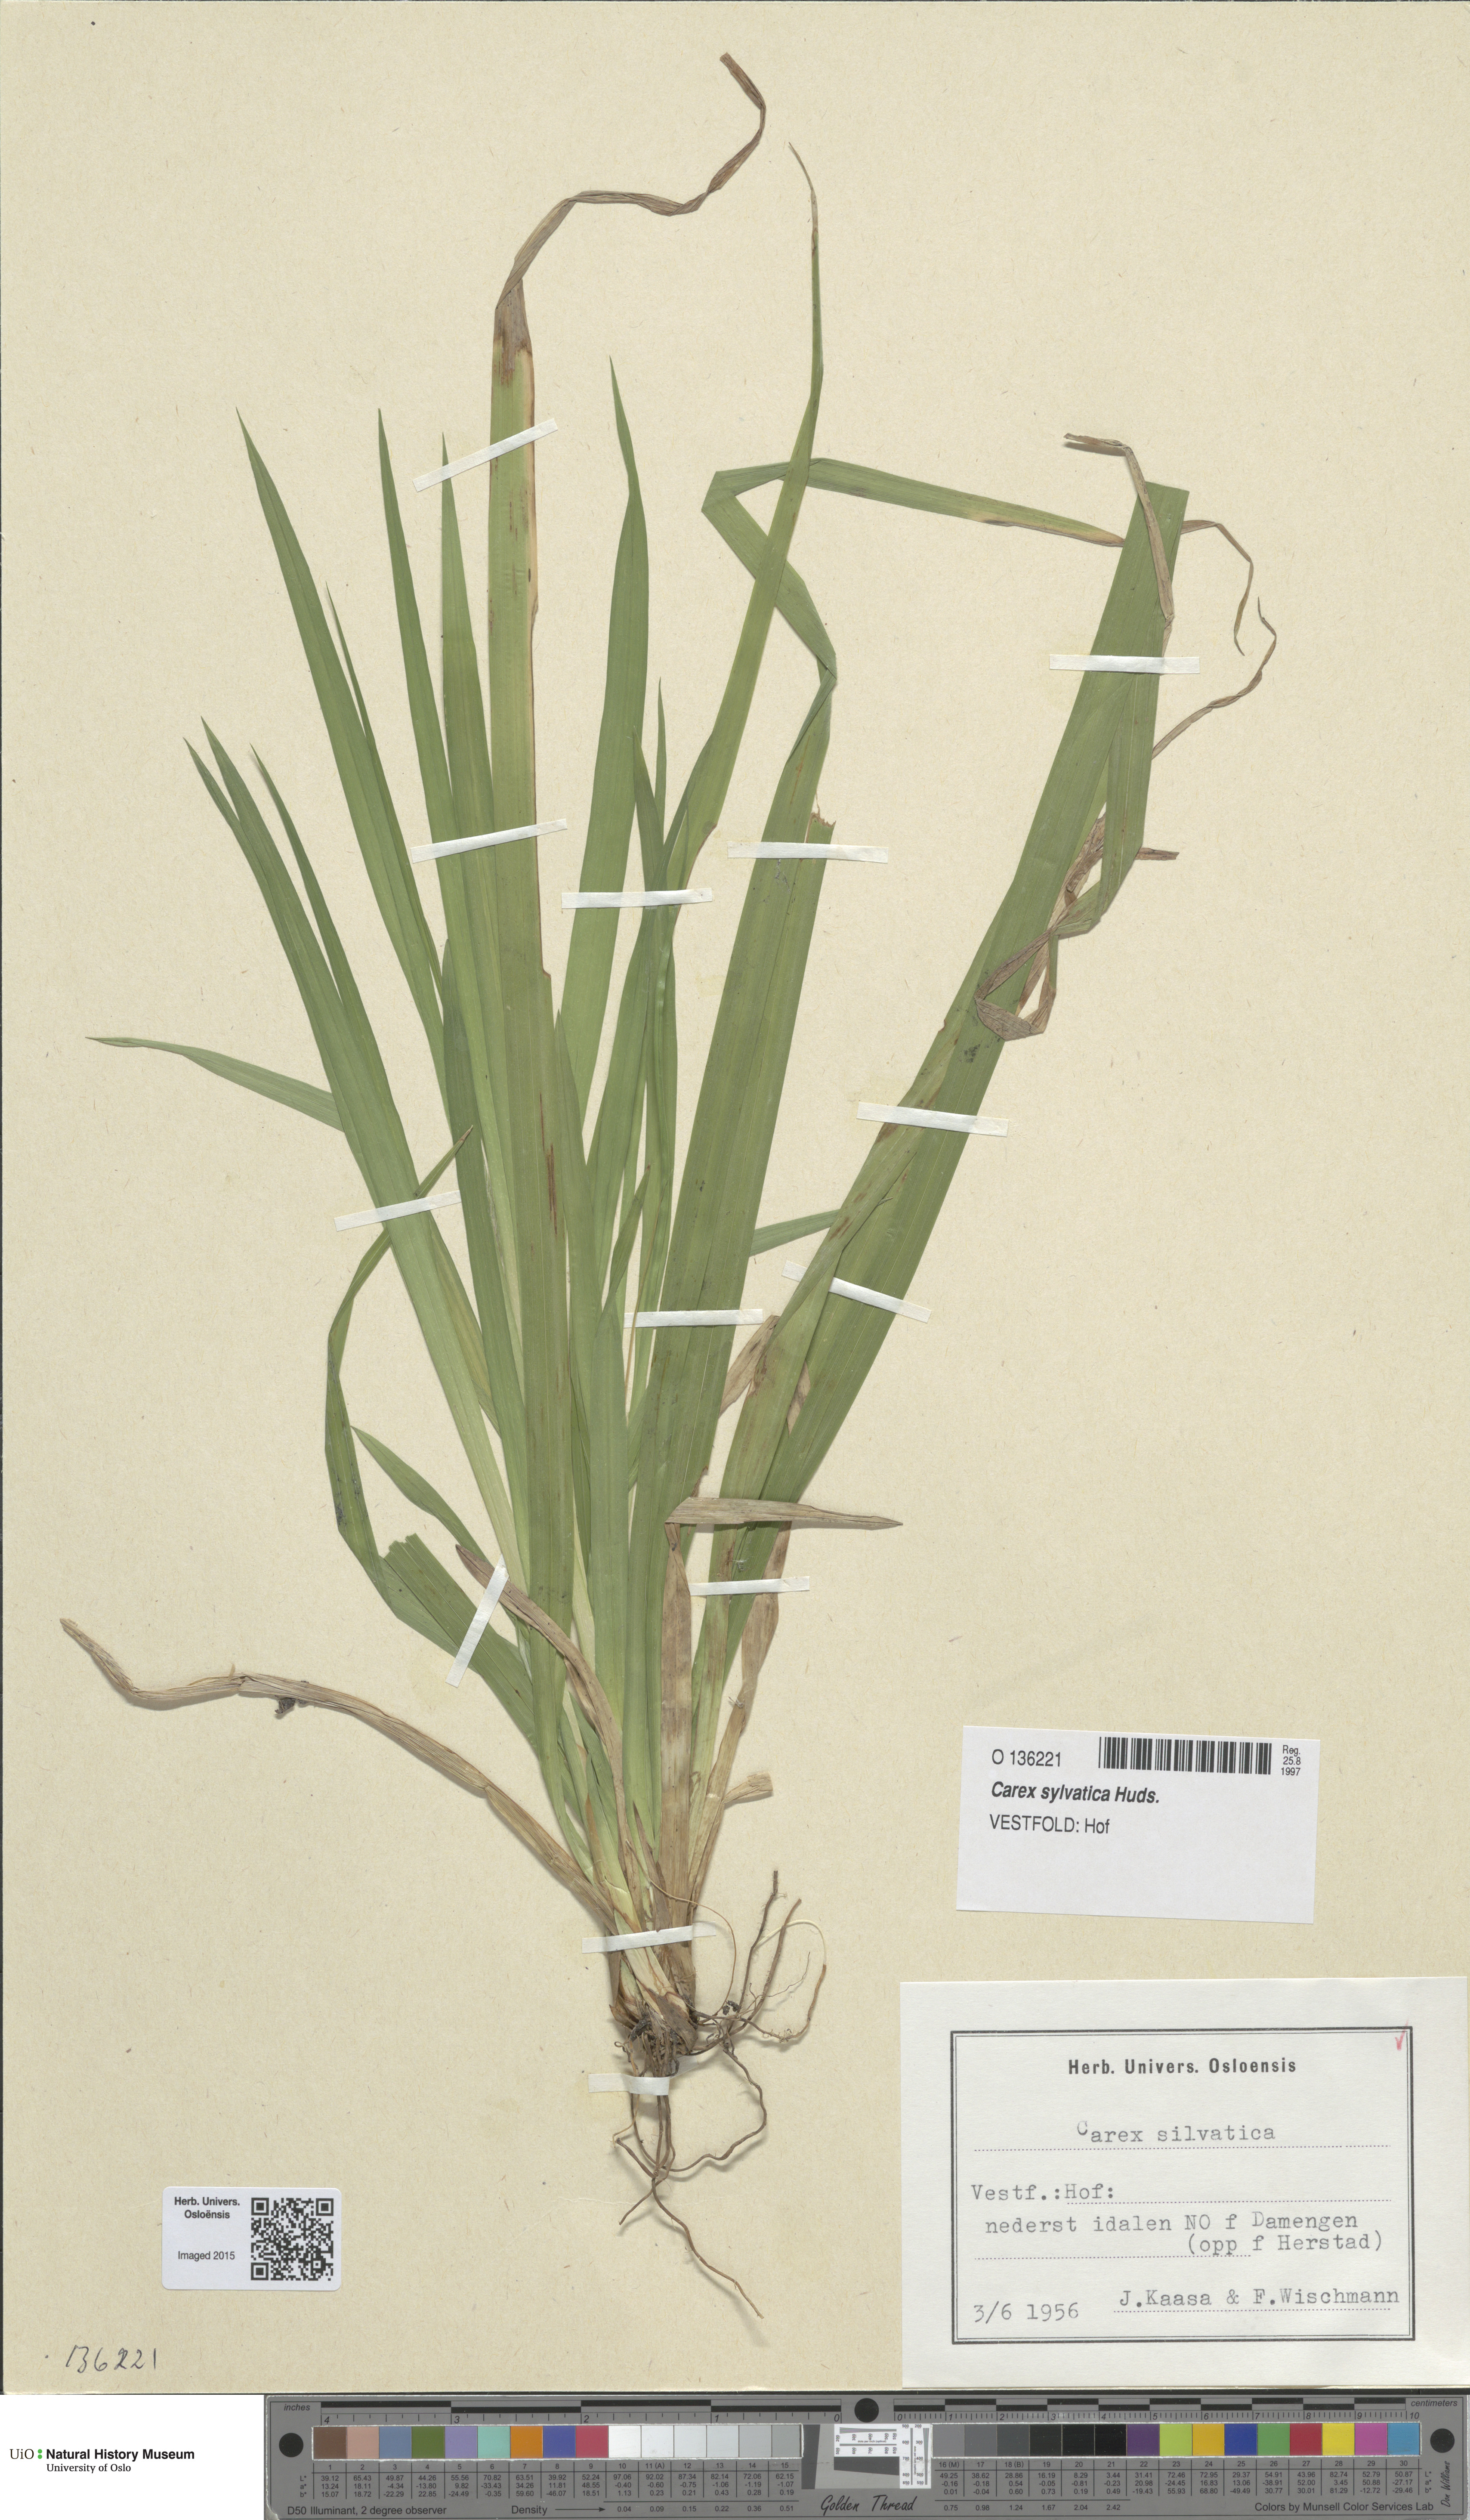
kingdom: Plantae
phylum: Tracheophyta
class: Liliopsida
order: Poales
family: Cyperaceae
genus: Carex
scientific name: Carex sylvatica
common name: Wood-sedge
